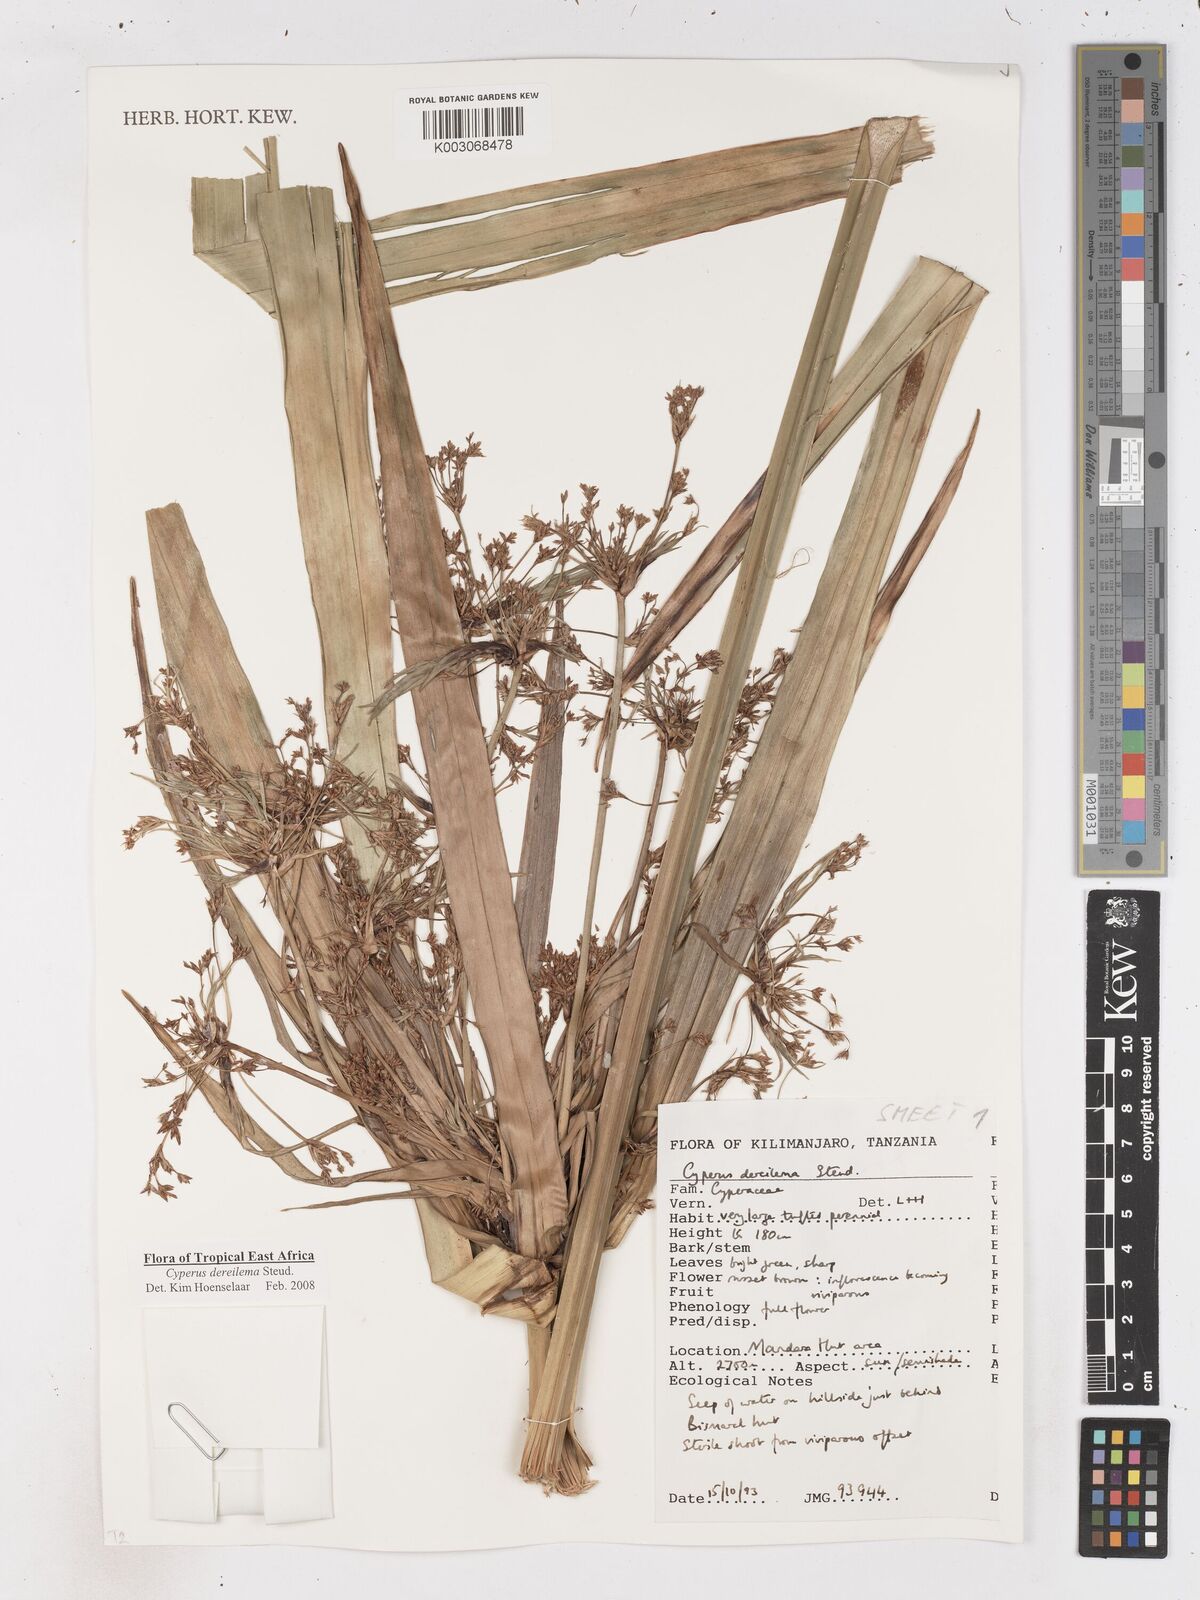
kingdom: Plantae
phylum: Tracheophyta
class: Liliopsida
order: Poales
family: Cyperaceae
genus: Cyperus
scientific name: Cyperus derreilema
